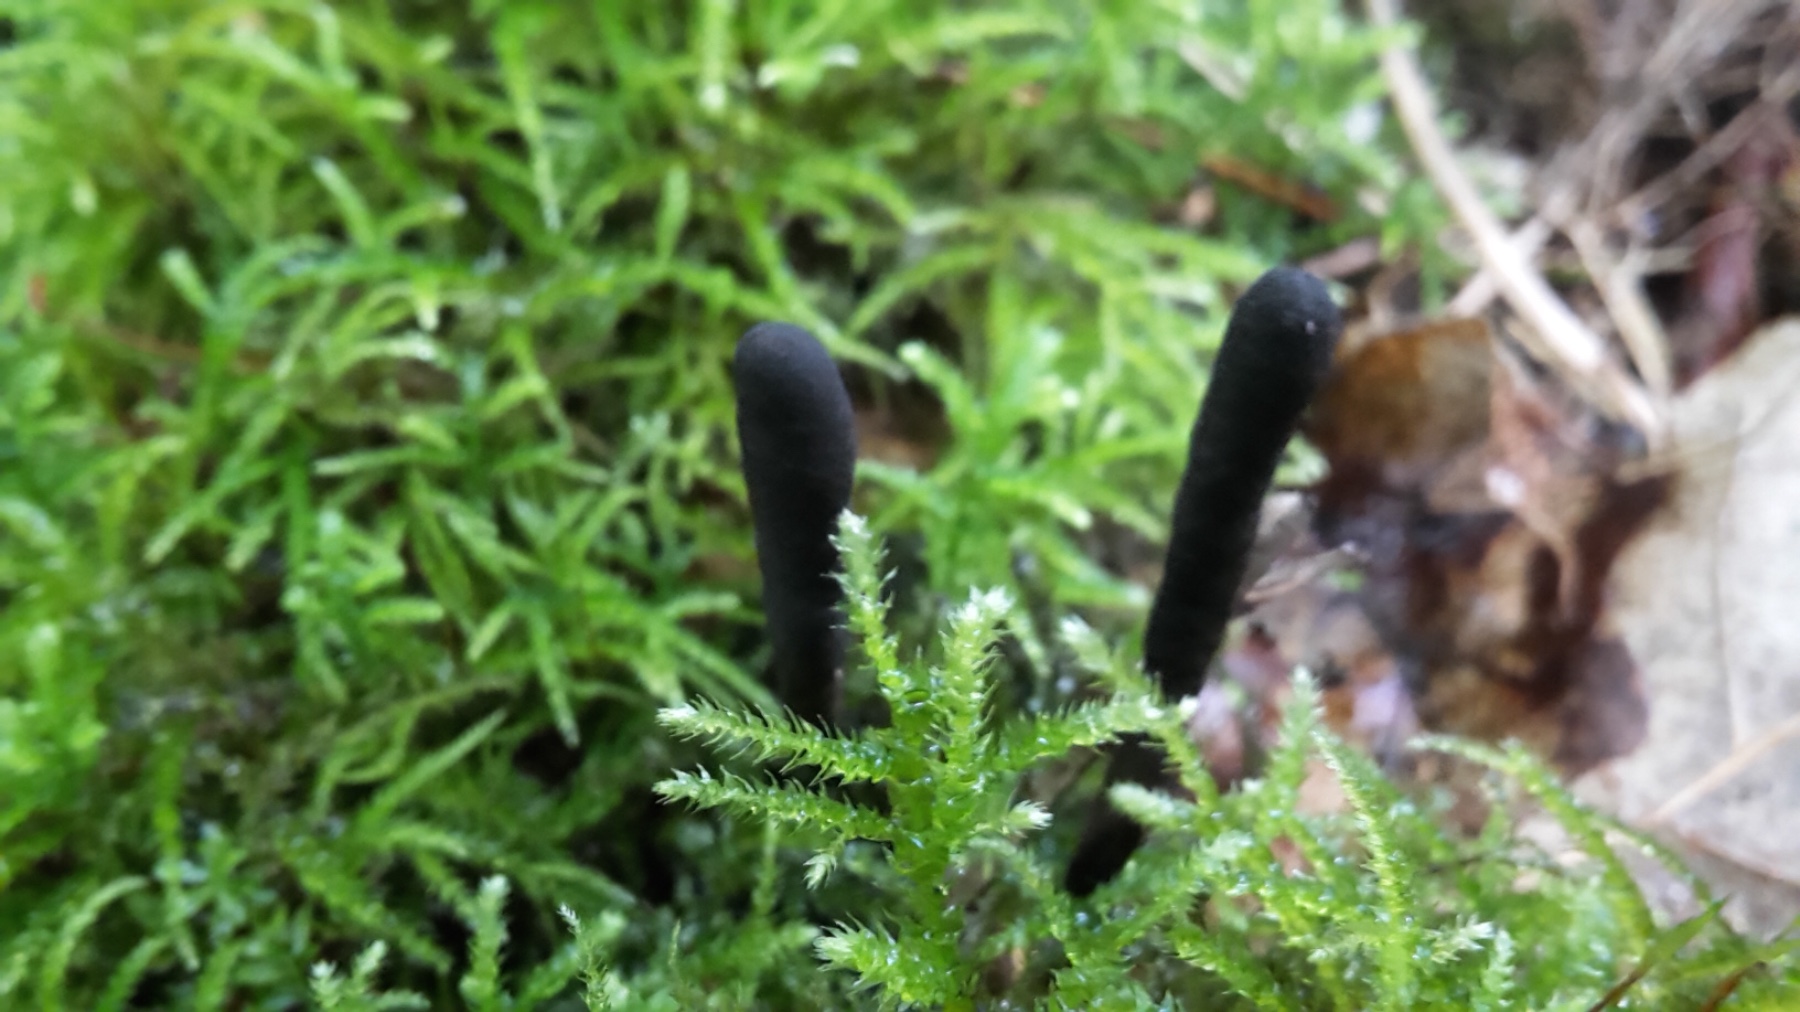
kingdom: Fungi
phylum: Ascomycota
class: Sordariomycetes
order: Xylariales
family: Xylariaceae
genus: Xylaria
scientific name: Xylaria longipes
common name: slank stødsvamp
